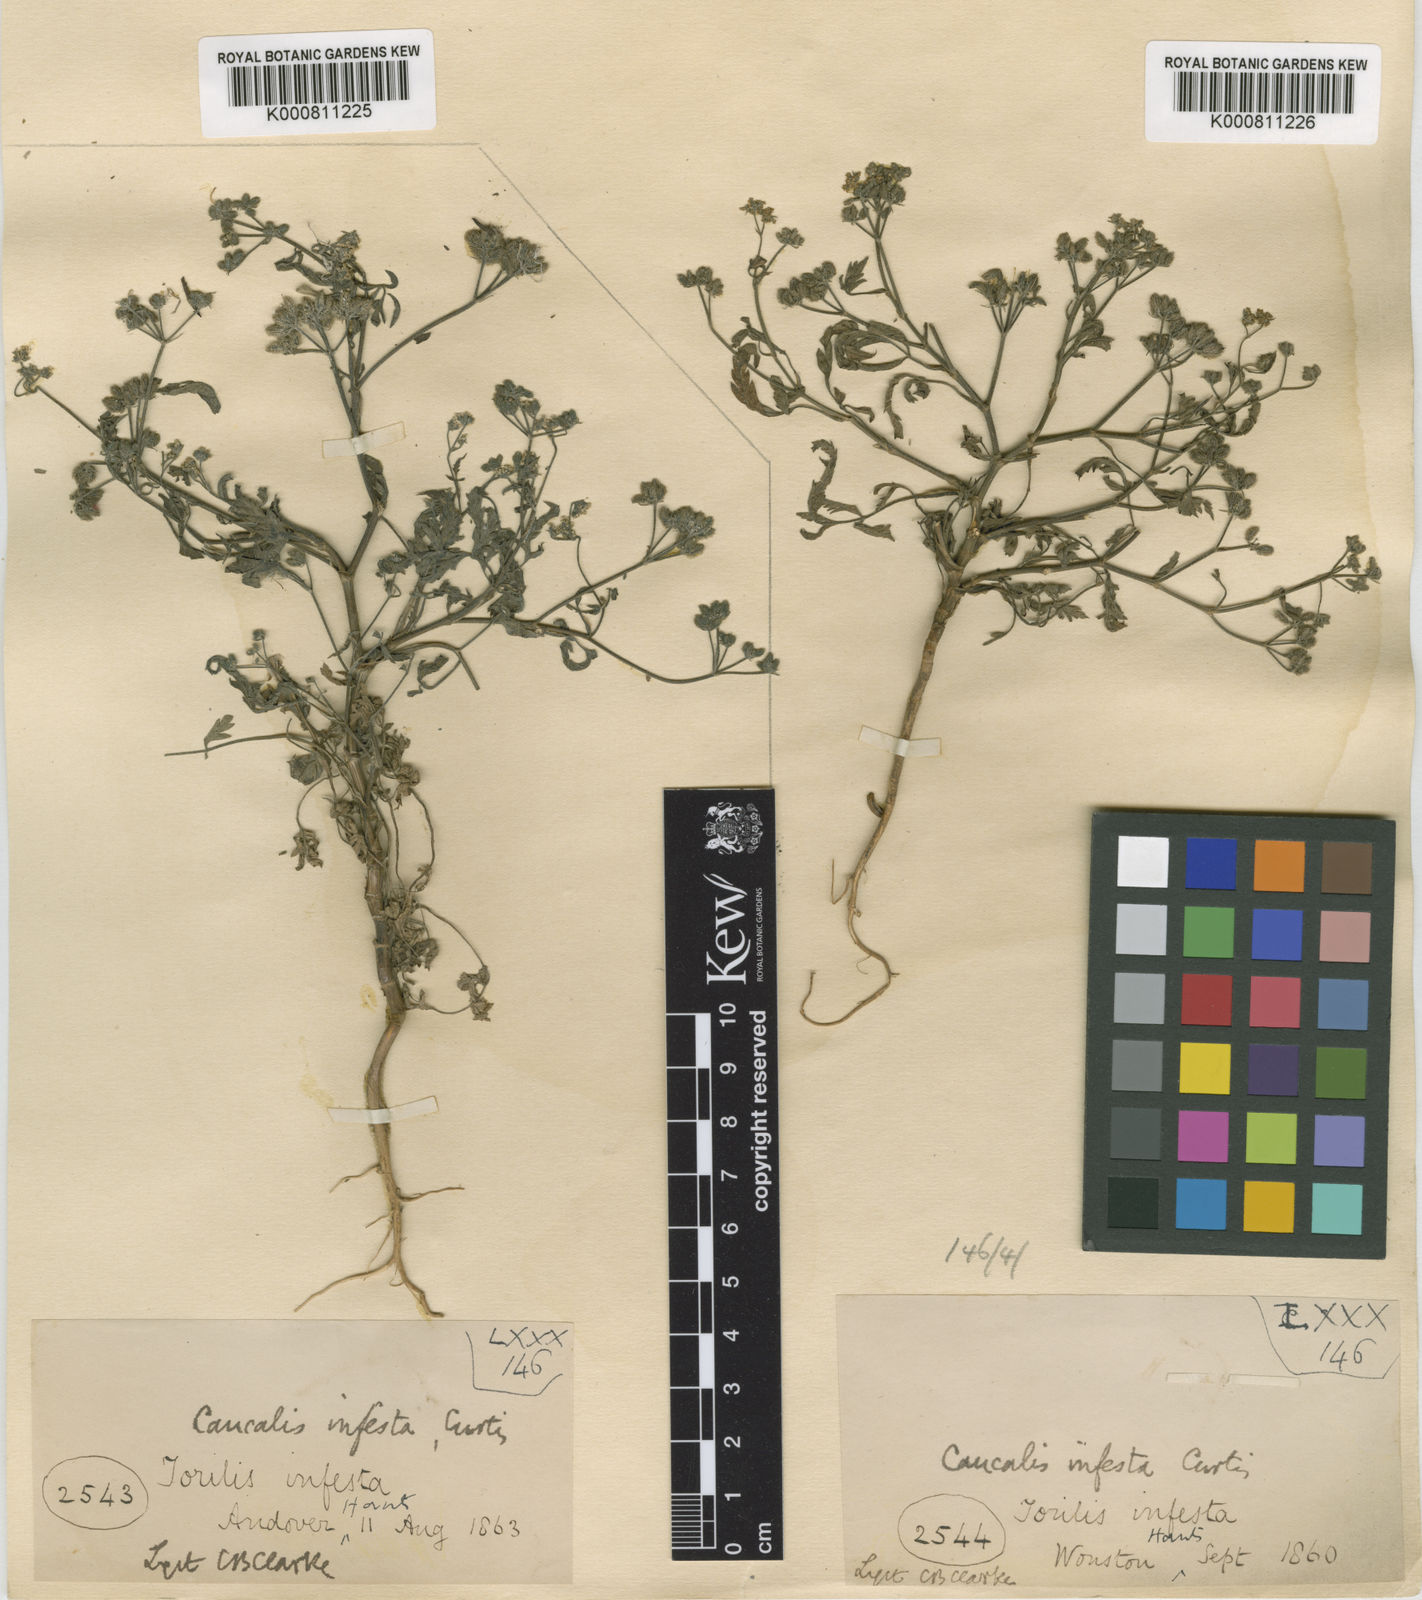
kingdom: Plantae
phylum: Tracheophyta
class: Magnoliopsida
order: Apiales
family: Apiaceae
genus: Torilis
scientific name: Torilis arvensis
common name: Spreading hedge-parsley
